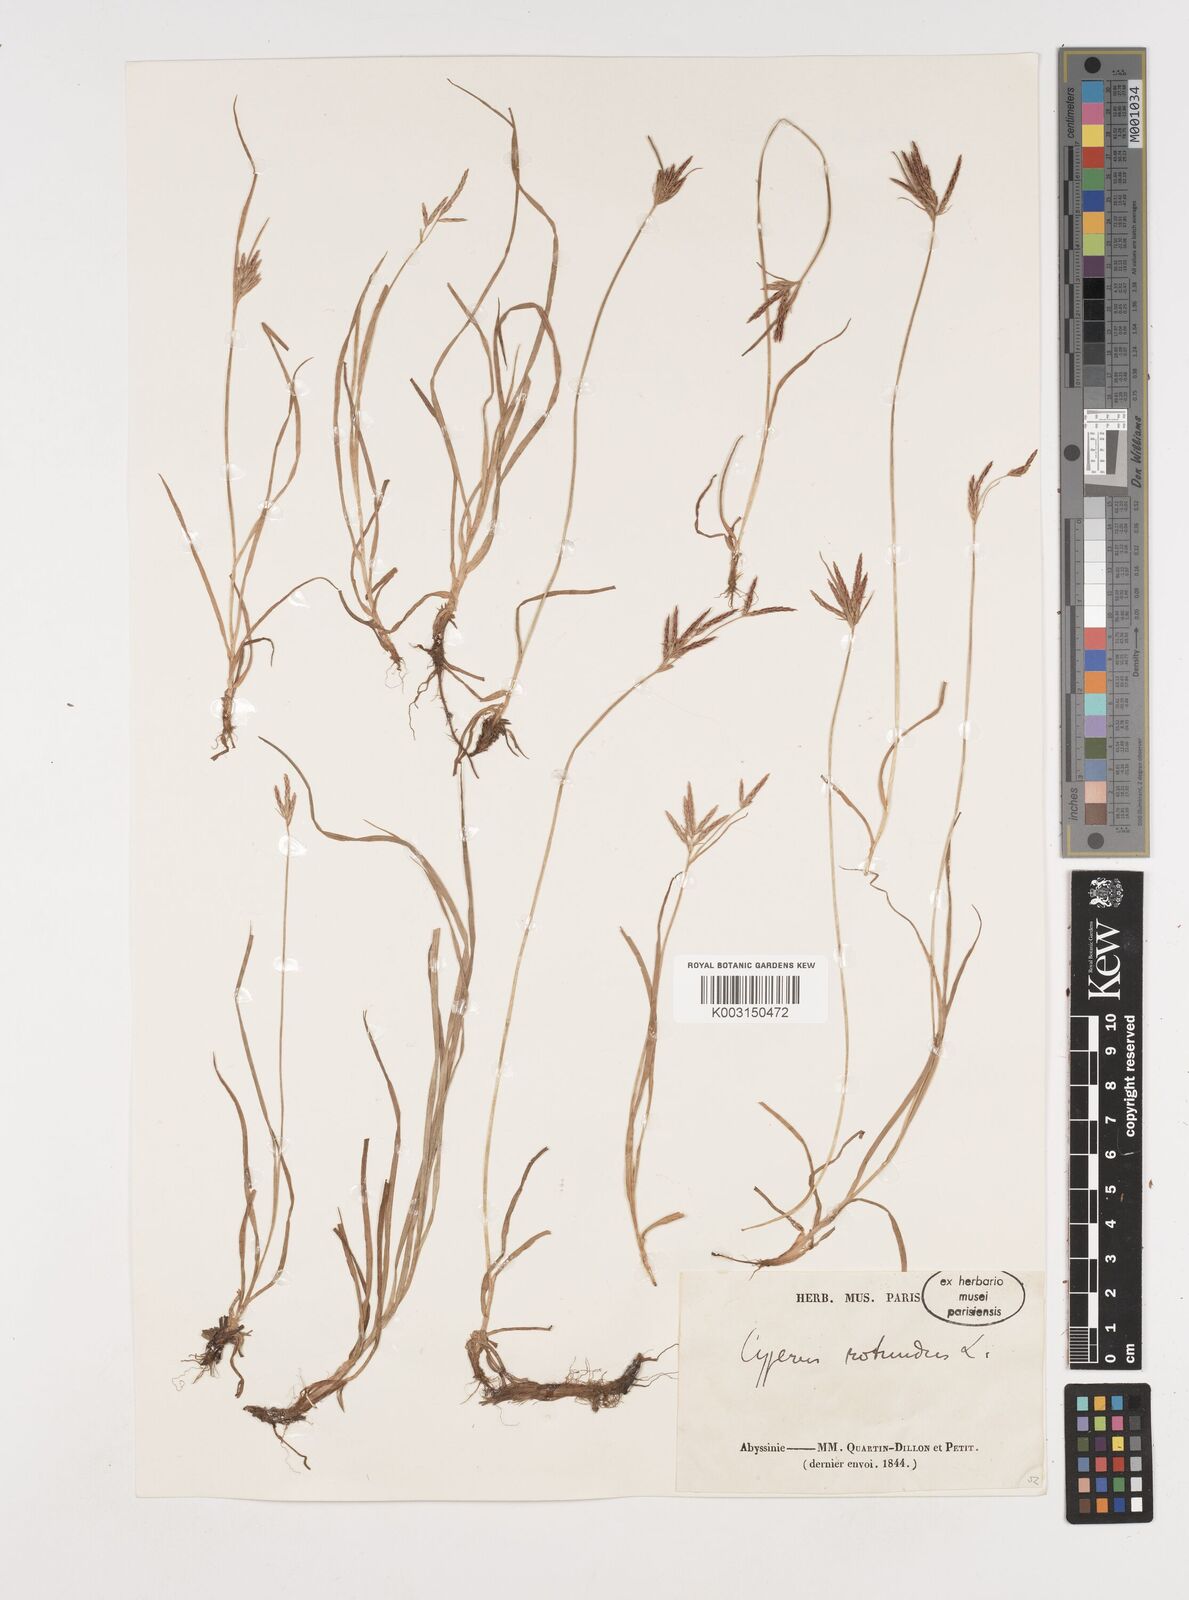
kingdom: Plantae
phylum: Tracheophyta
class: Liliopsida
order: Poales
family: Cyperaceae
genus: Cyperus
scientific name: Cyperus rotundus
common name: Nutgrass
